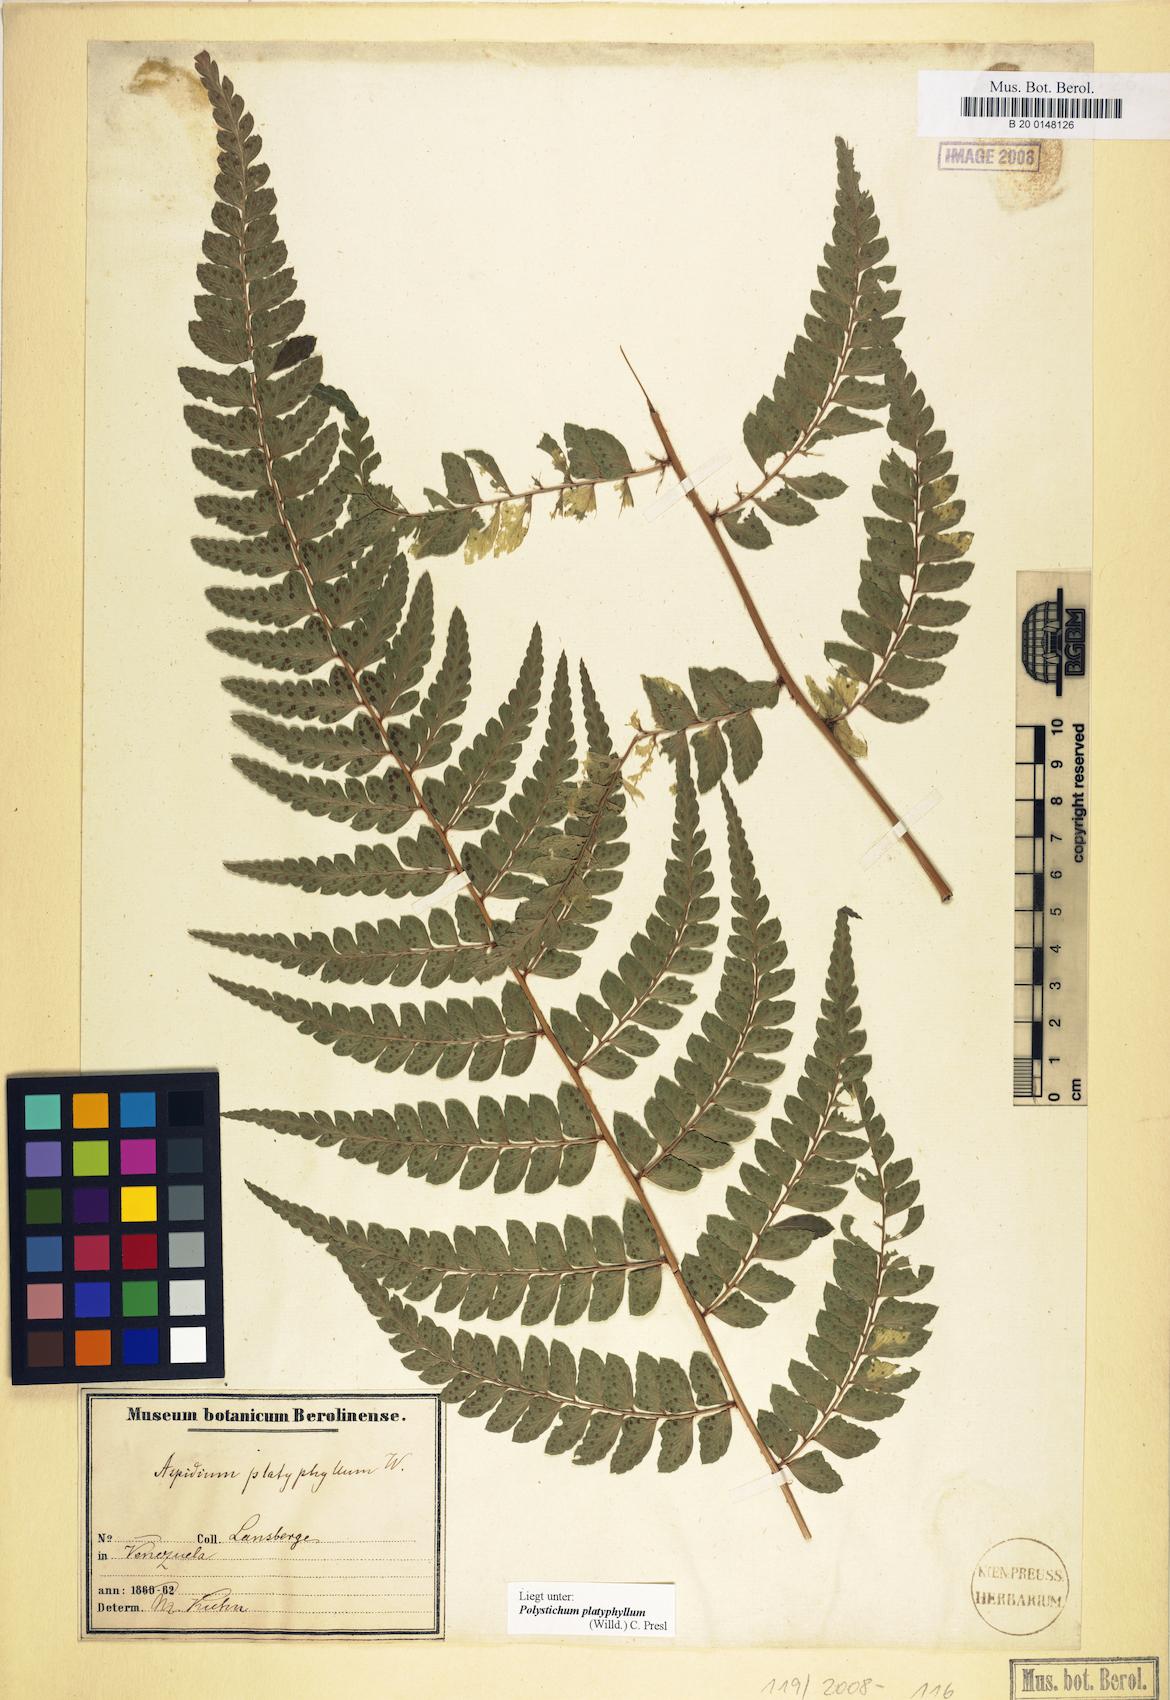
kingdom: Plantae
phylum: Tracheophyta
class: Polypodiopsida
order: Polypodiales
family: Dryopteridaceae
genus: Polystichum
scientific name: Polystichum platyphyllum
